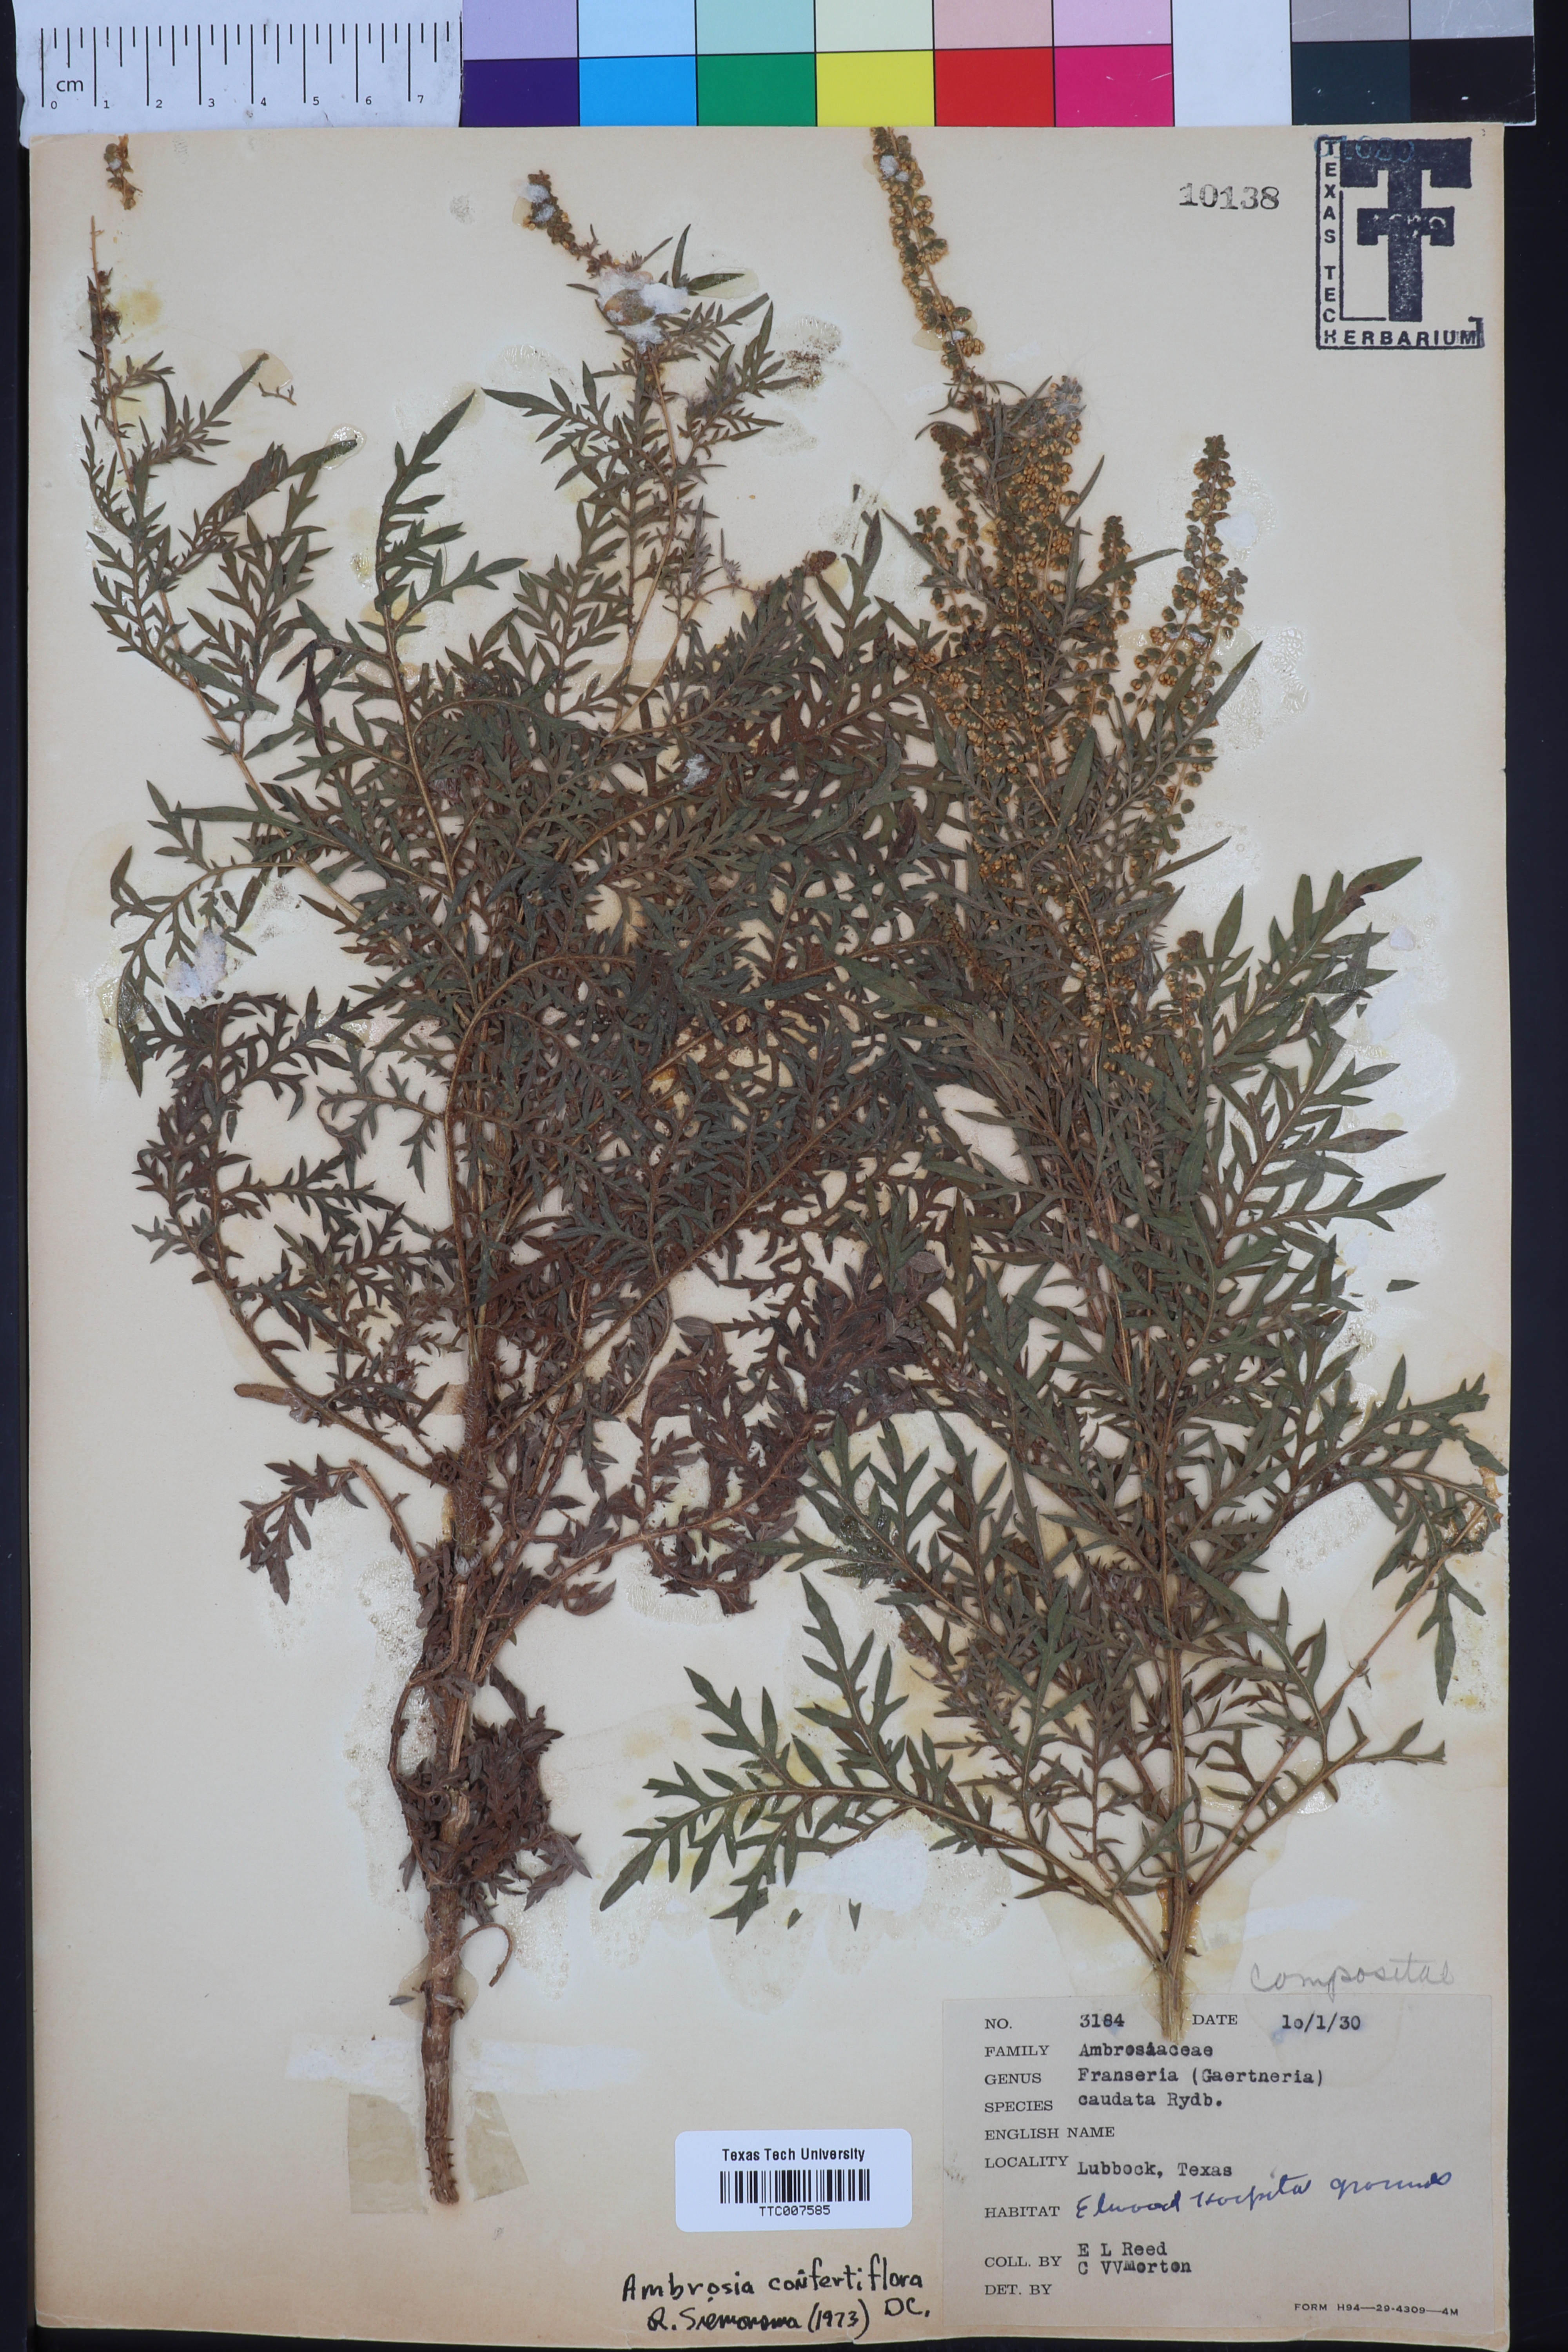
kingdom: Plantae
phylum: Tracheophyta
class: Magnoliopsida
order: Asterales
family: Asteraceae
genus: Ambrosia
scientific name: Ambrosia confertiflora
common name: Bur ragweed
